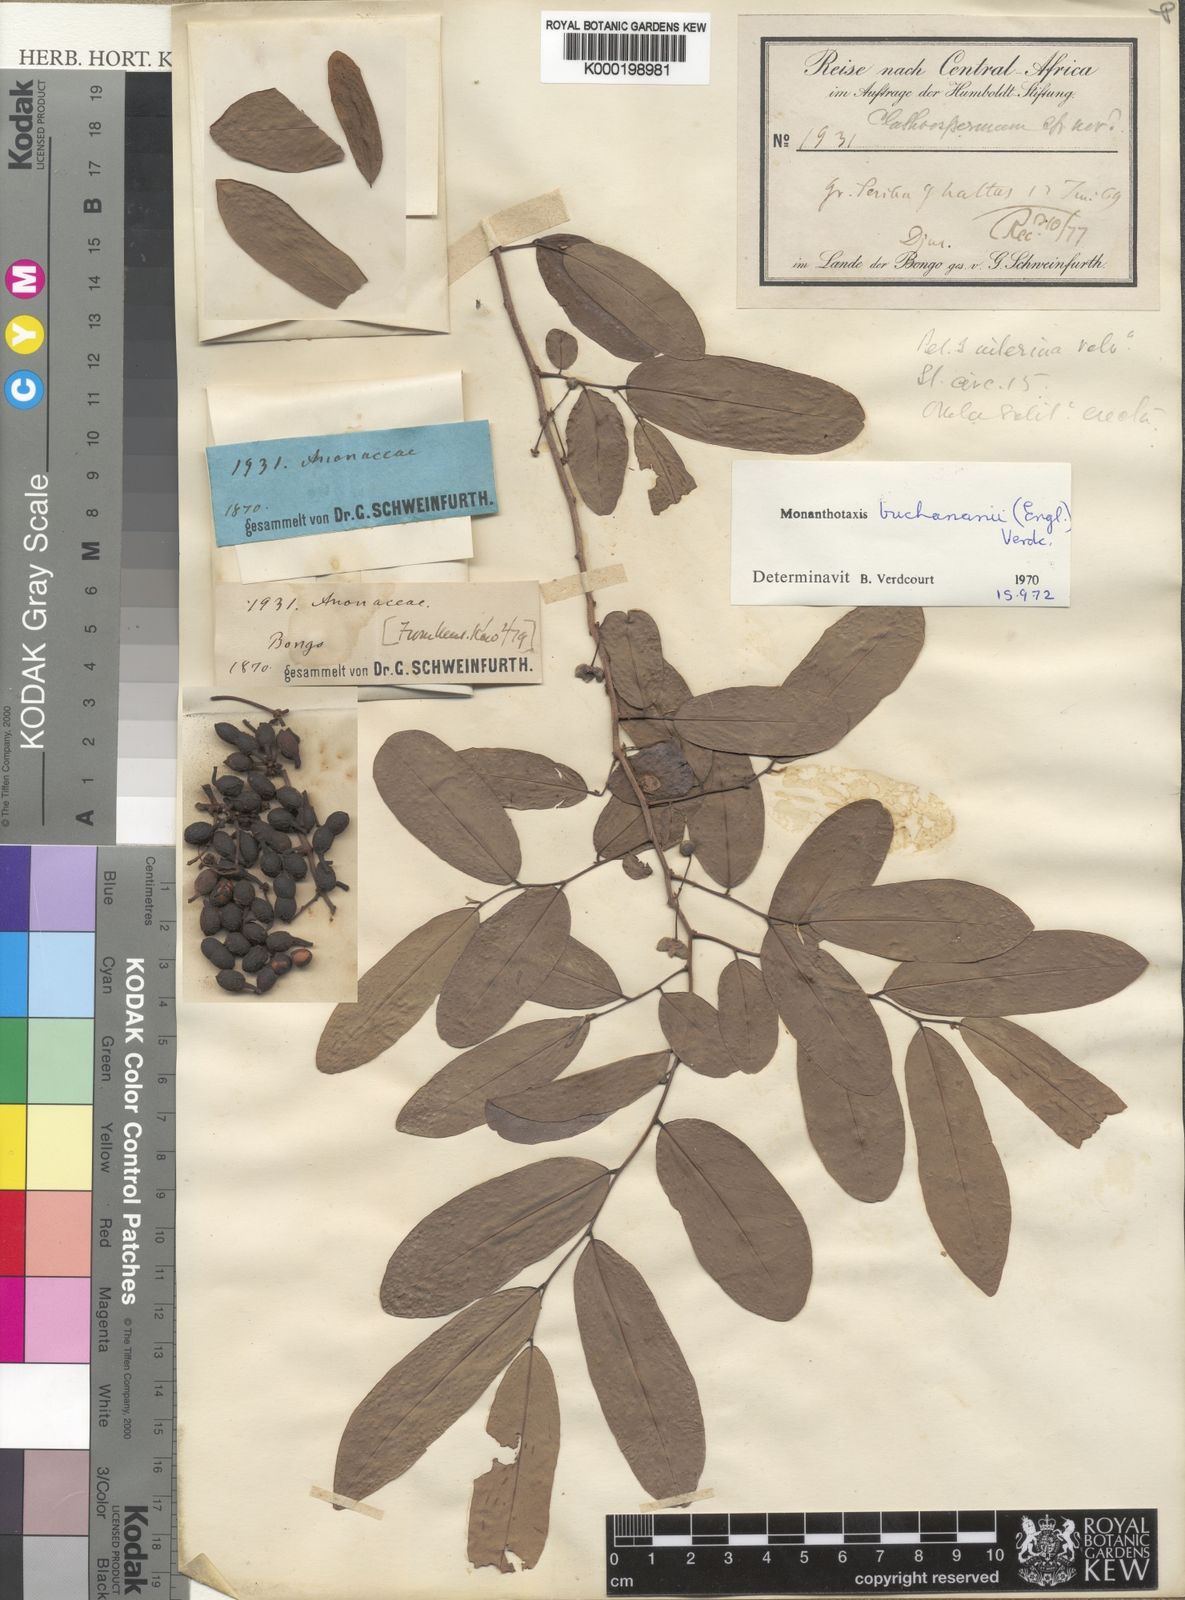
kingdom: Plantae
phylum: Tracheophyta
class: Magnoliopsida
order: Magnoliales
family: Annonaceae
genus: Monanthotaxis
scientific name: Monanthotaxis buchananii
